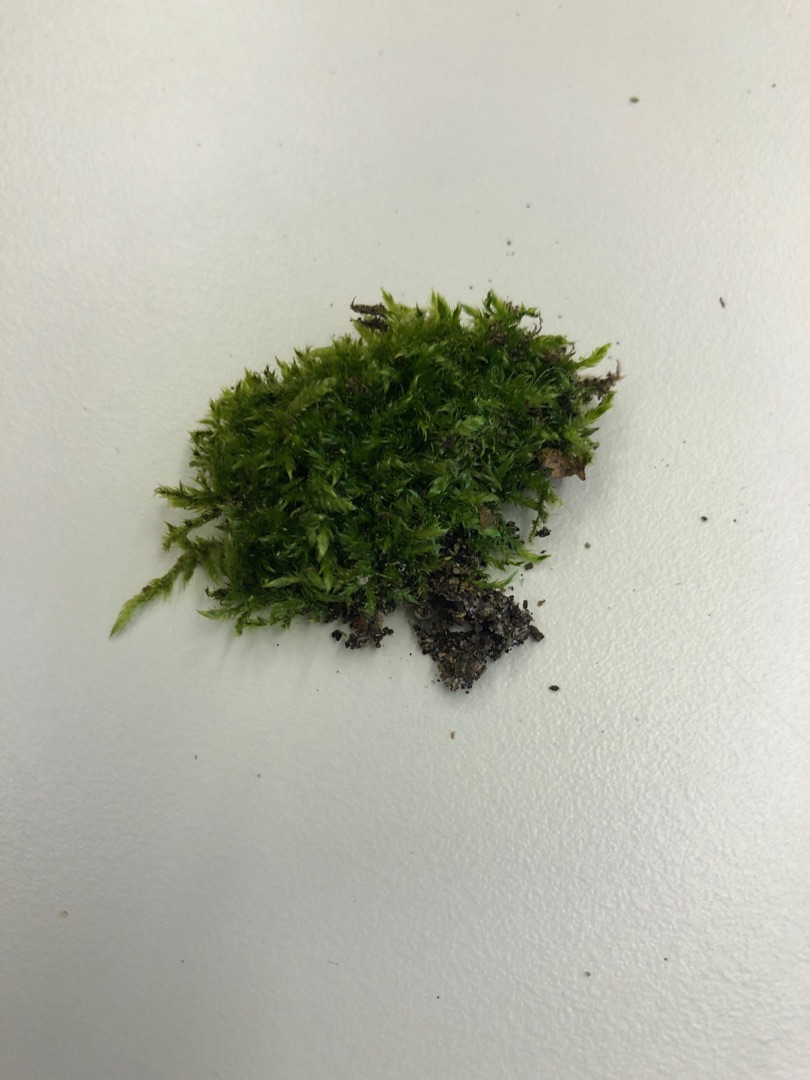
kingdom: Plantae
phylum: Bryophyta
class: Bryopsida
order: Hypnales
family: Hypnaceae
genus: Hypnum
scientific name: Hypnum
